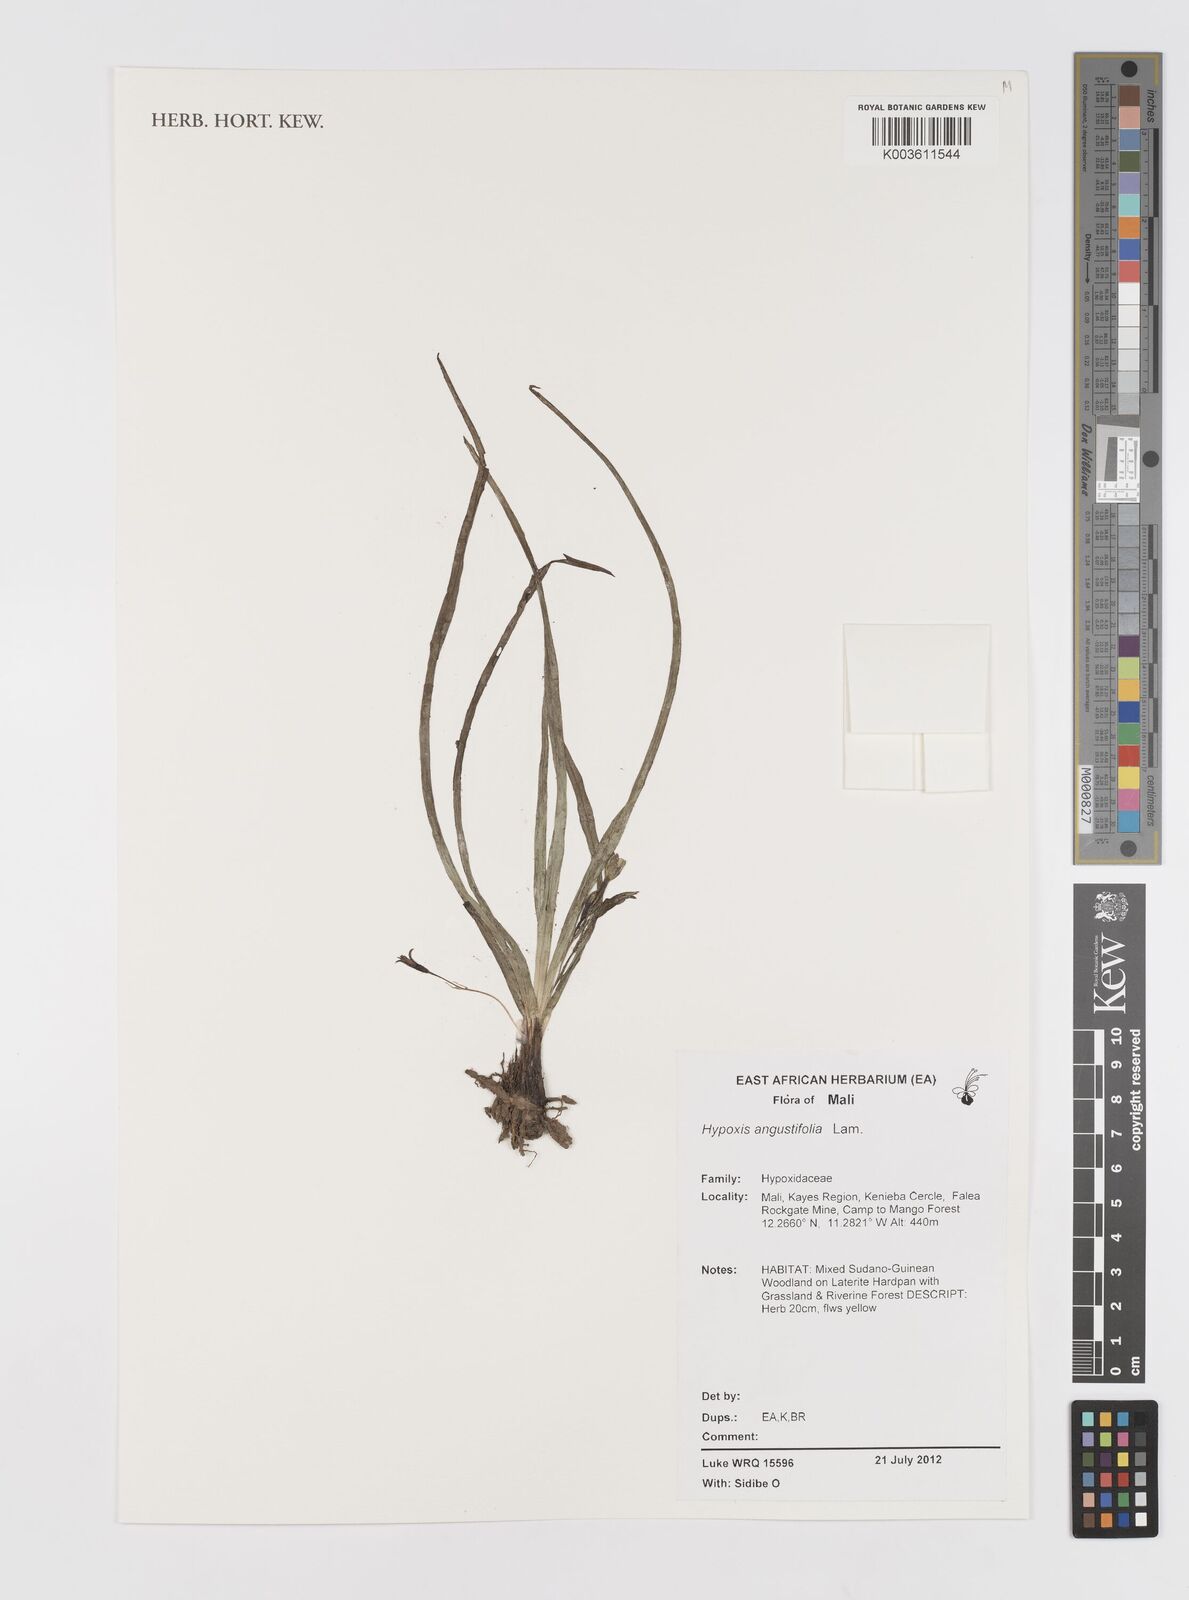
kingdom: Plantae
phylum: Tracheophyta
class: Liliopsida
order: Asparagales
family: Hypoxidaceae
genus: Hypoxis
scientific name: Hypoxis angustifolia
